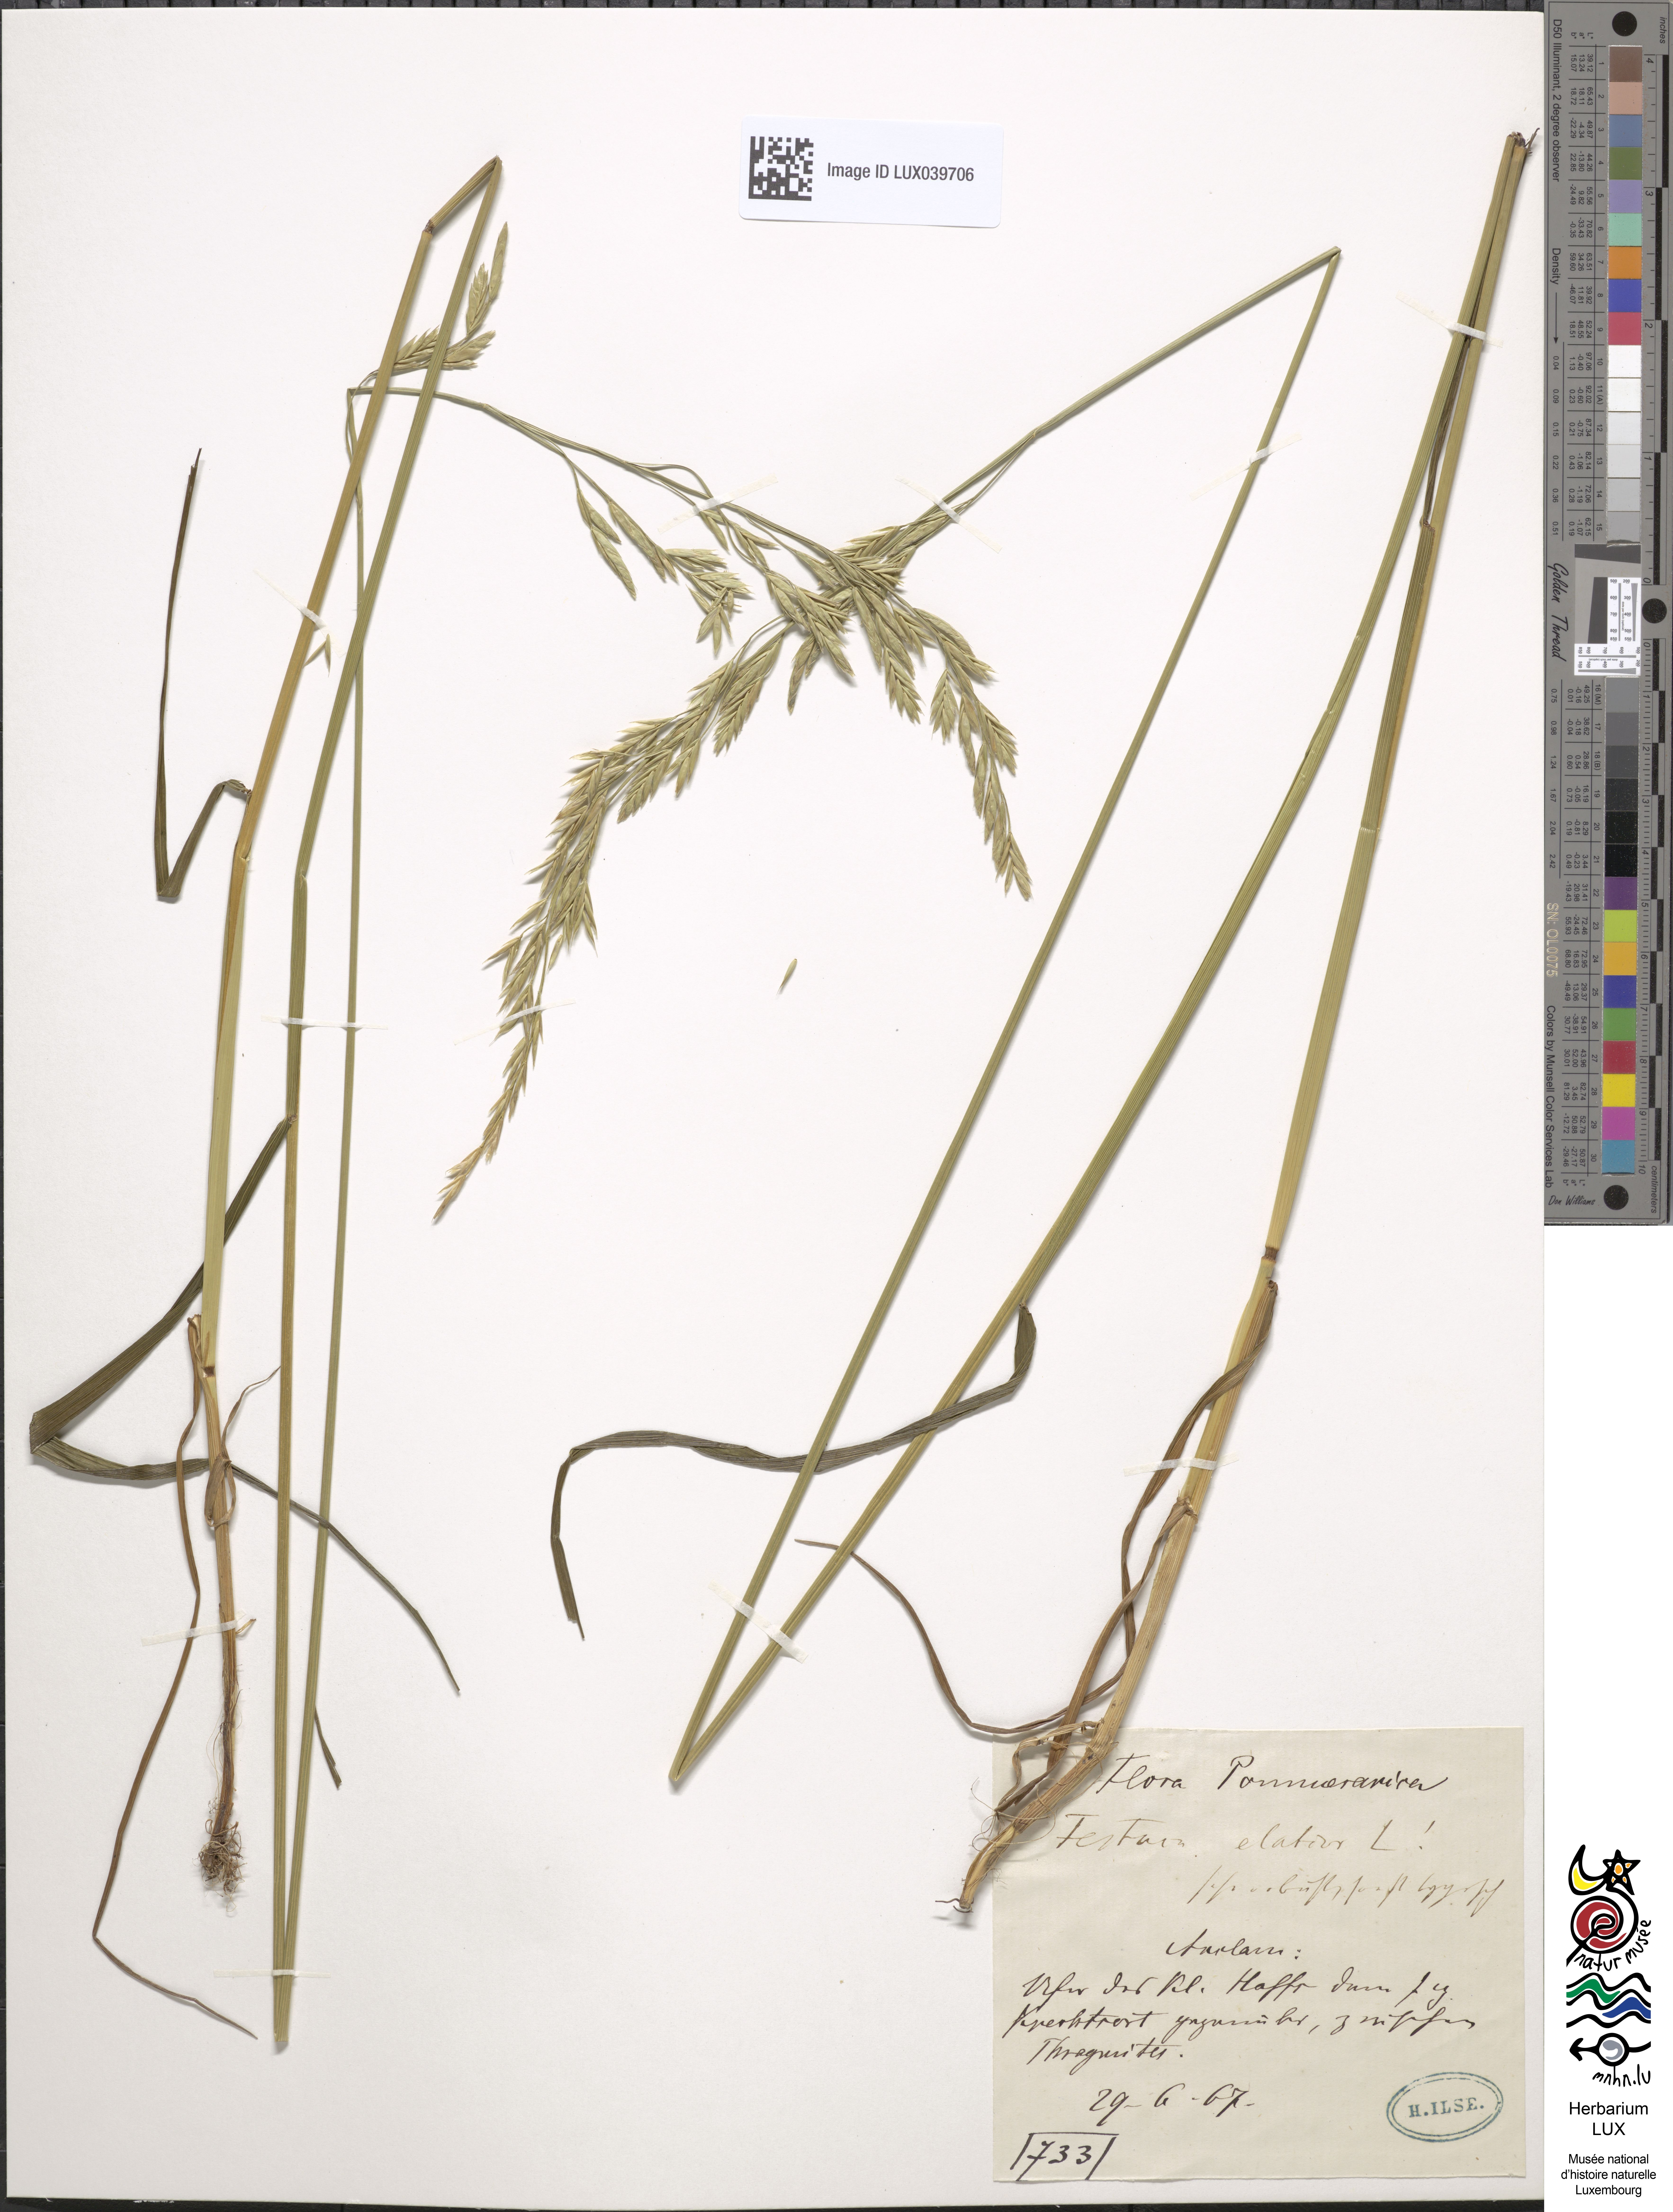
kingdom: Plantae
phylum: Tracheophyta
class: Liliopsida
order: Poales
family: Poaceae
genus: Lolium
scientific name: Lolium pratense
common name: Dover grass
